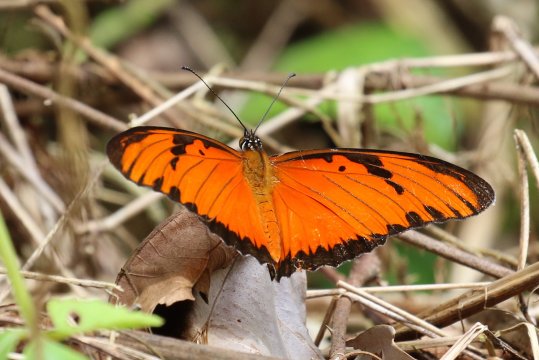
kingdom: Animalia
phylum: Arthropoda
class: Insecta
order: Lepidoptera
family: Nymphalidae
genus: Dione
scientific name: Dione juno
